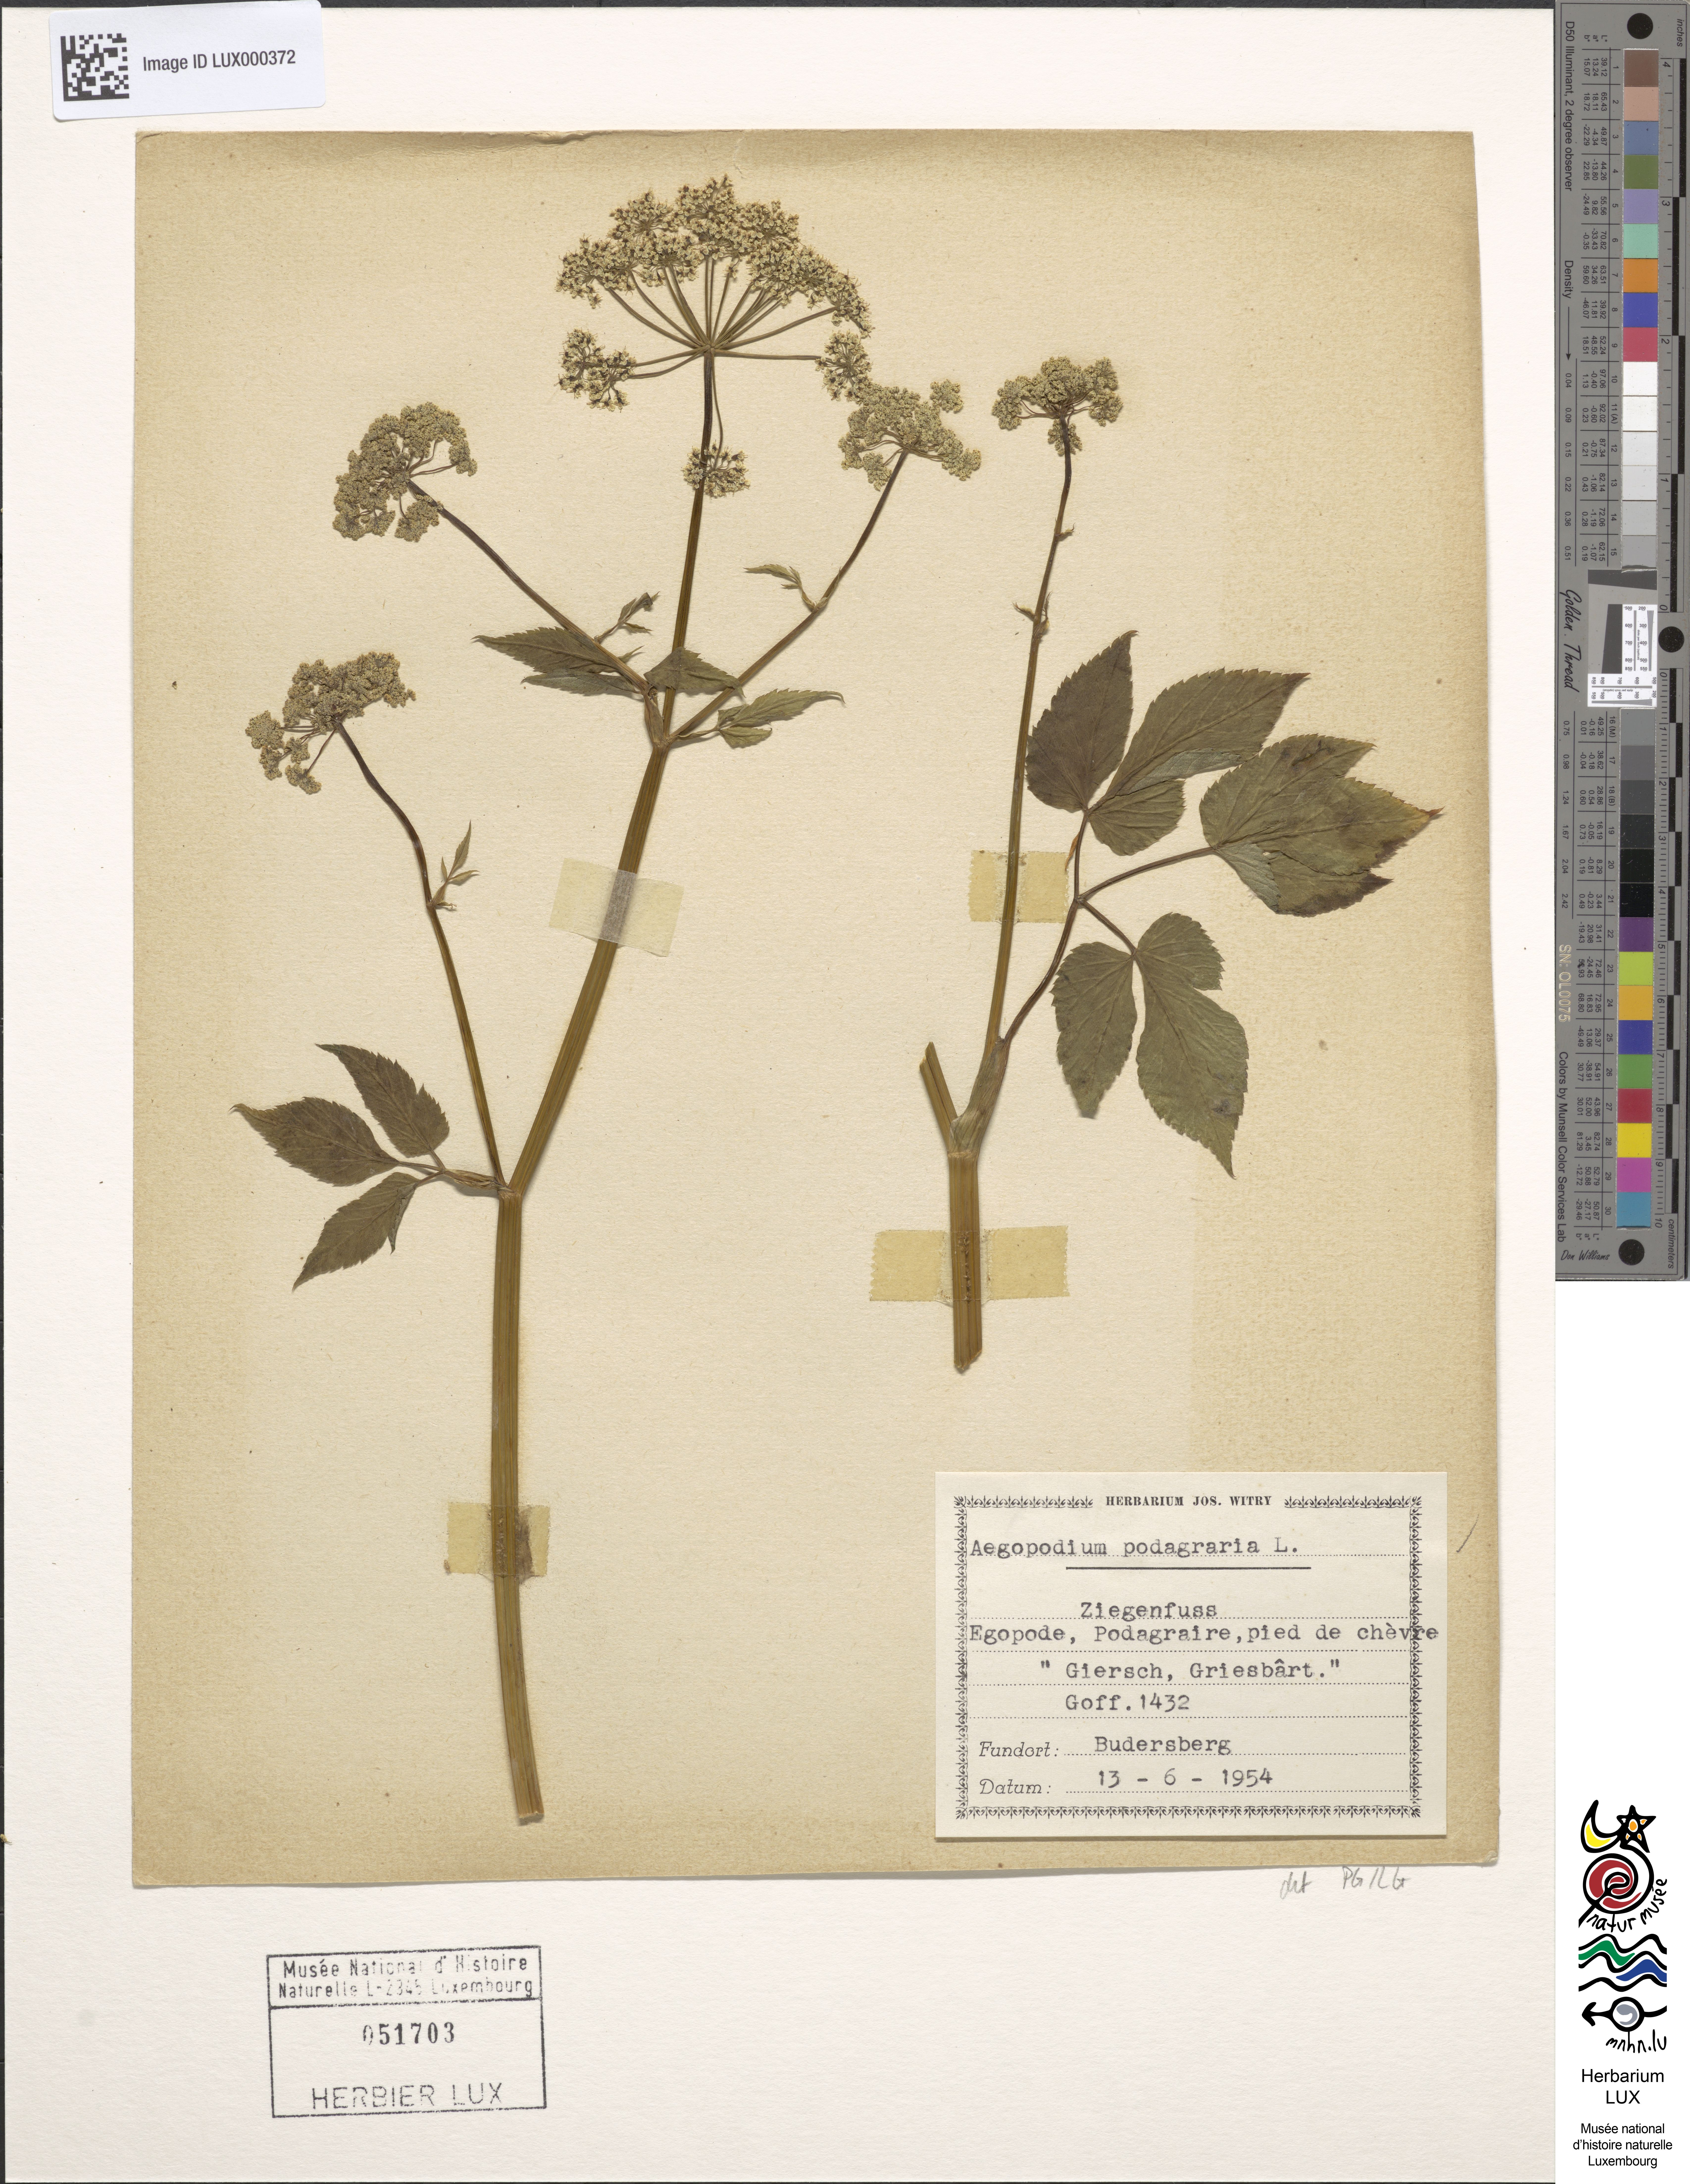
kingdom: Plantae
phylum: Tracheophyta
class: Magnoliopsida
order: Apiales
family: Apiaceae
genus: Aegopodium
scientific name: Aegopodium podagraria
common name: Ground-elder
